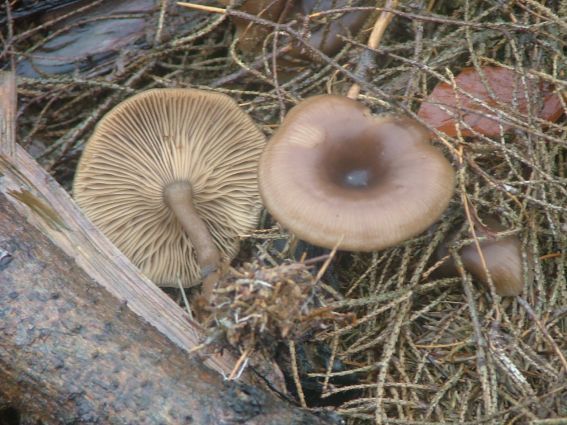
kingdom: Fungi
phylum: Basidiomycota
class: Agaricomycetes
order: Agaricales
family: Tricholomataceae
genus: Myxomphalia
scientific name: Myxomphalia maura
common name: kulhat
